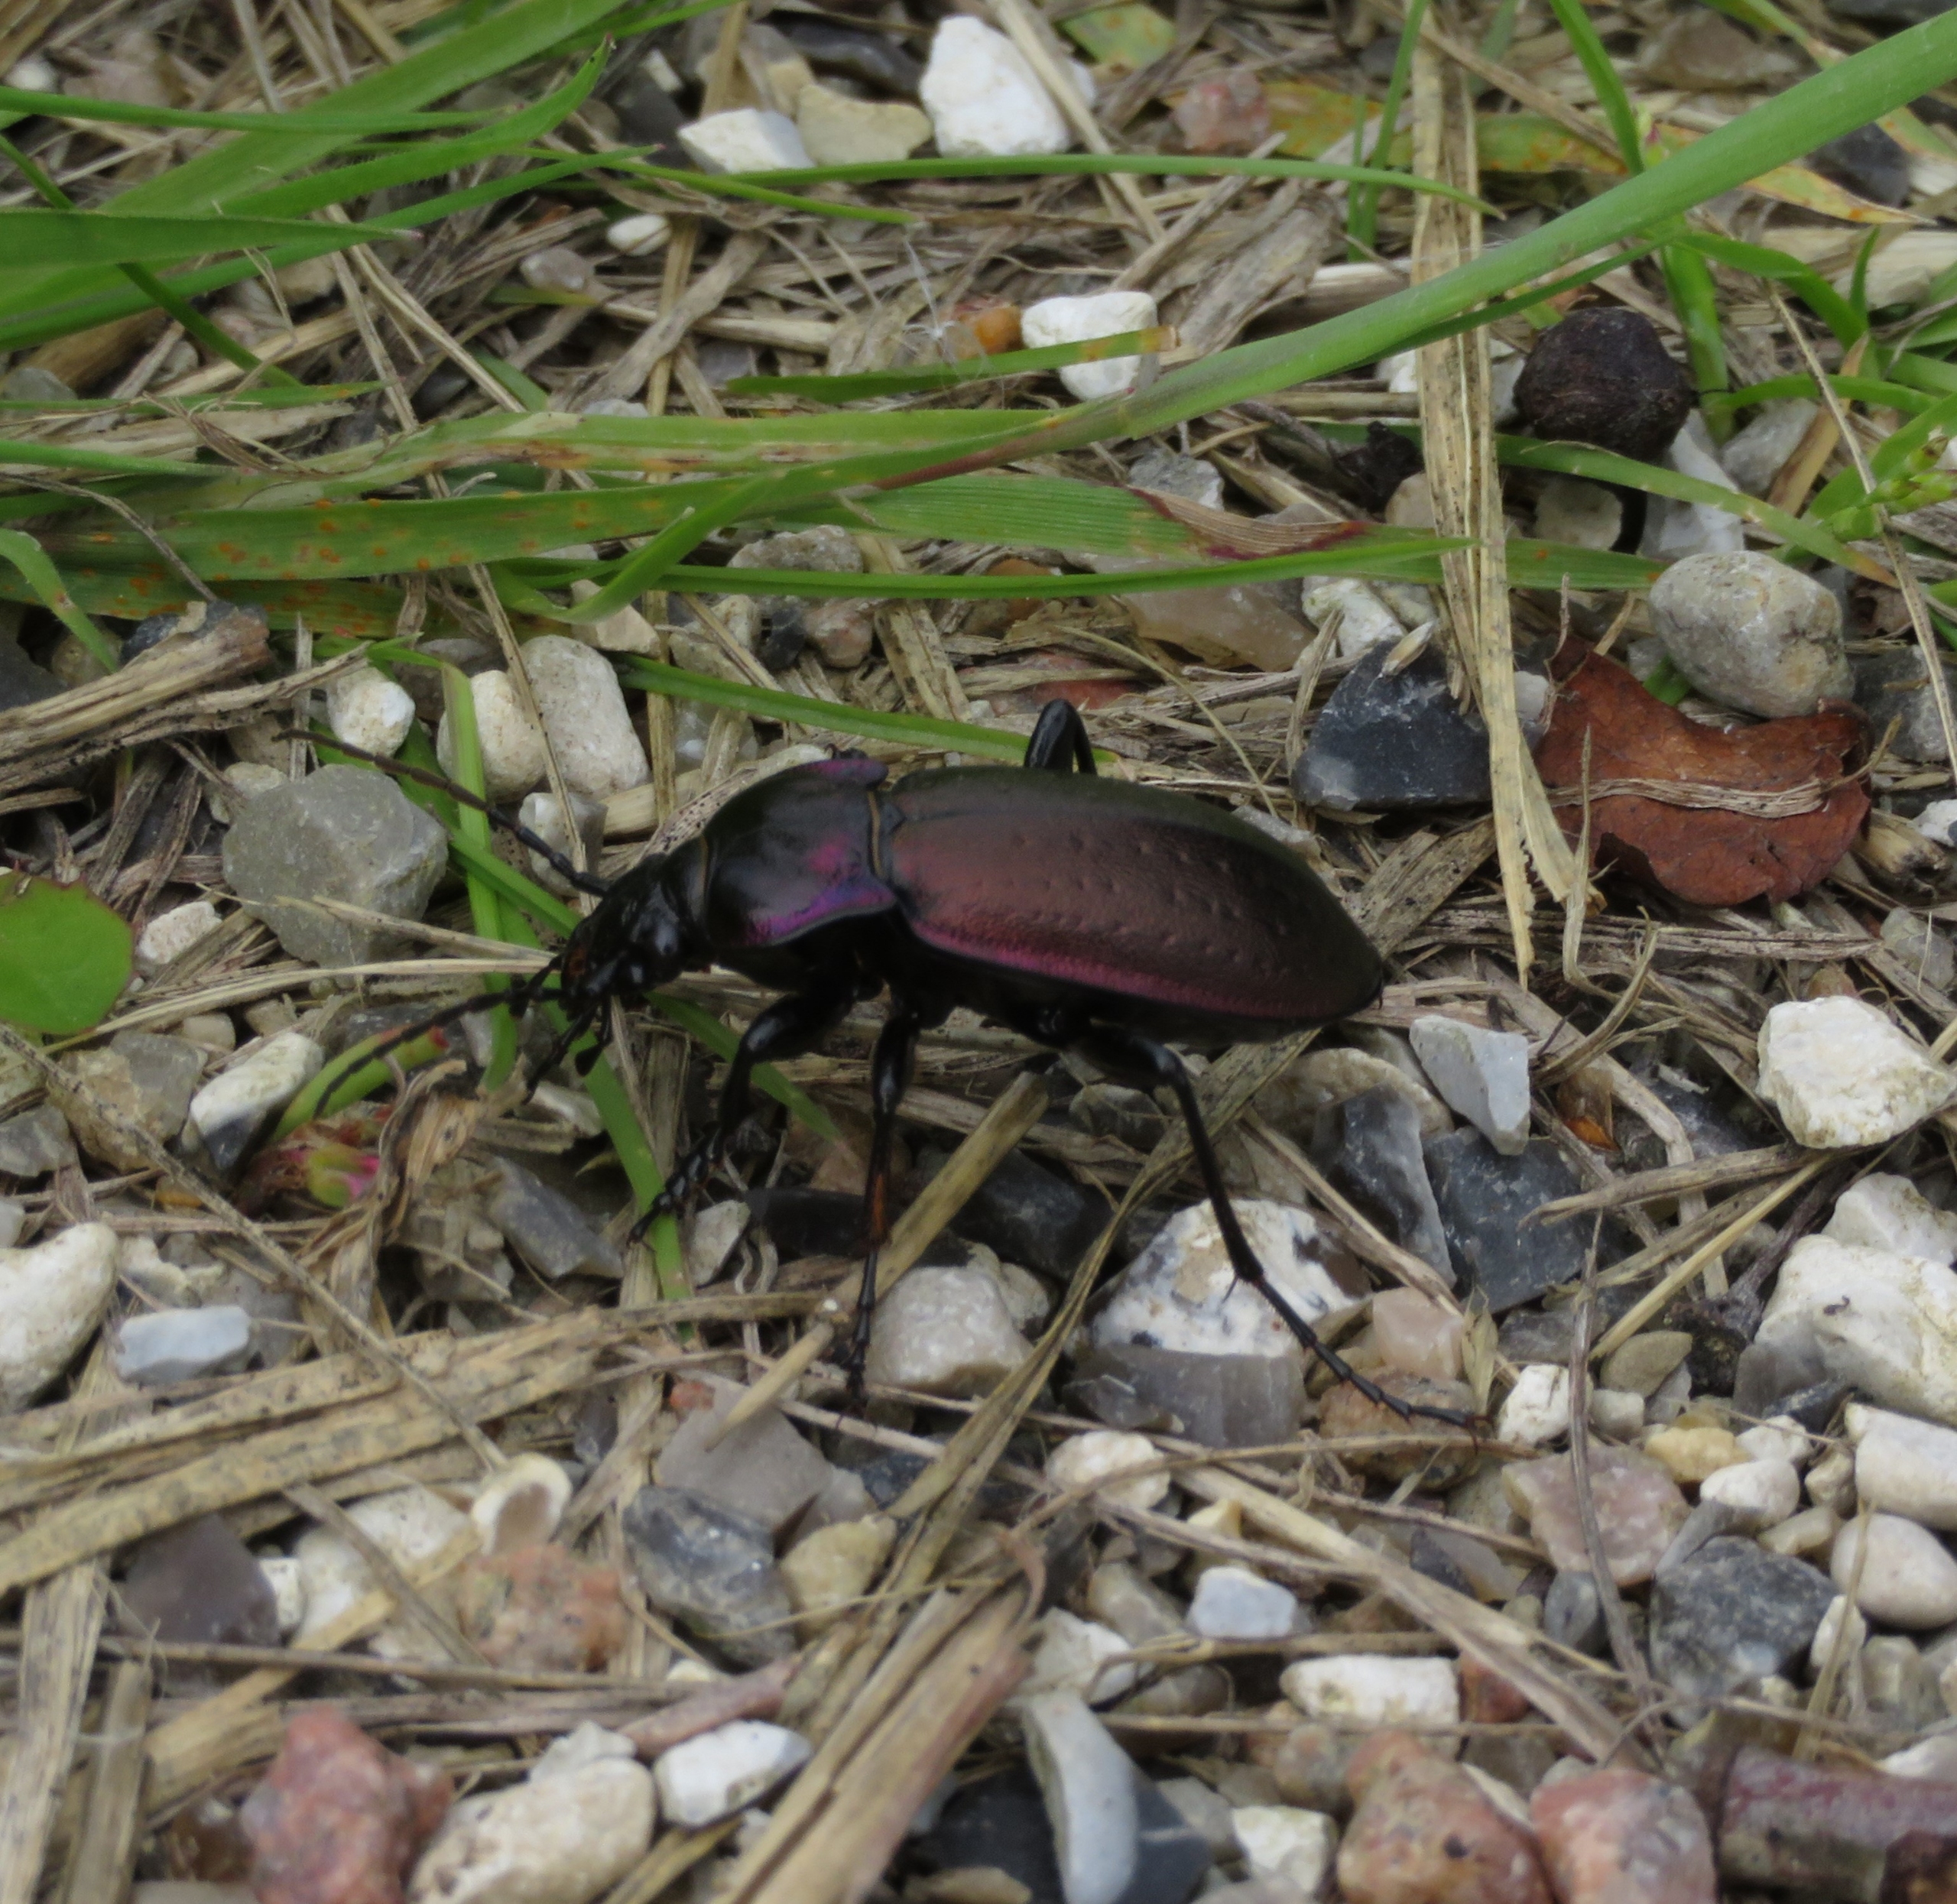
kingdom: Animalia
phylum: Arthropoda
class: Insecta
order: Coleoptera
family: Carabidae
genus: Carabus
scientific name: Carabus nemoralis
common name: Kratløber
